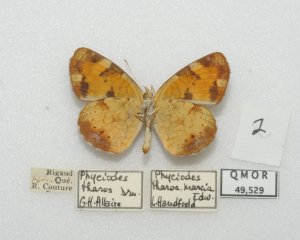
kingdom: Animalia
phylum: Arthropoda
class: Insecta
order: Lepidoptera
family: Nymphalidae
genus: Phyciodes
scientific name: Phyciodes tharos
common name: Northern Crescent
